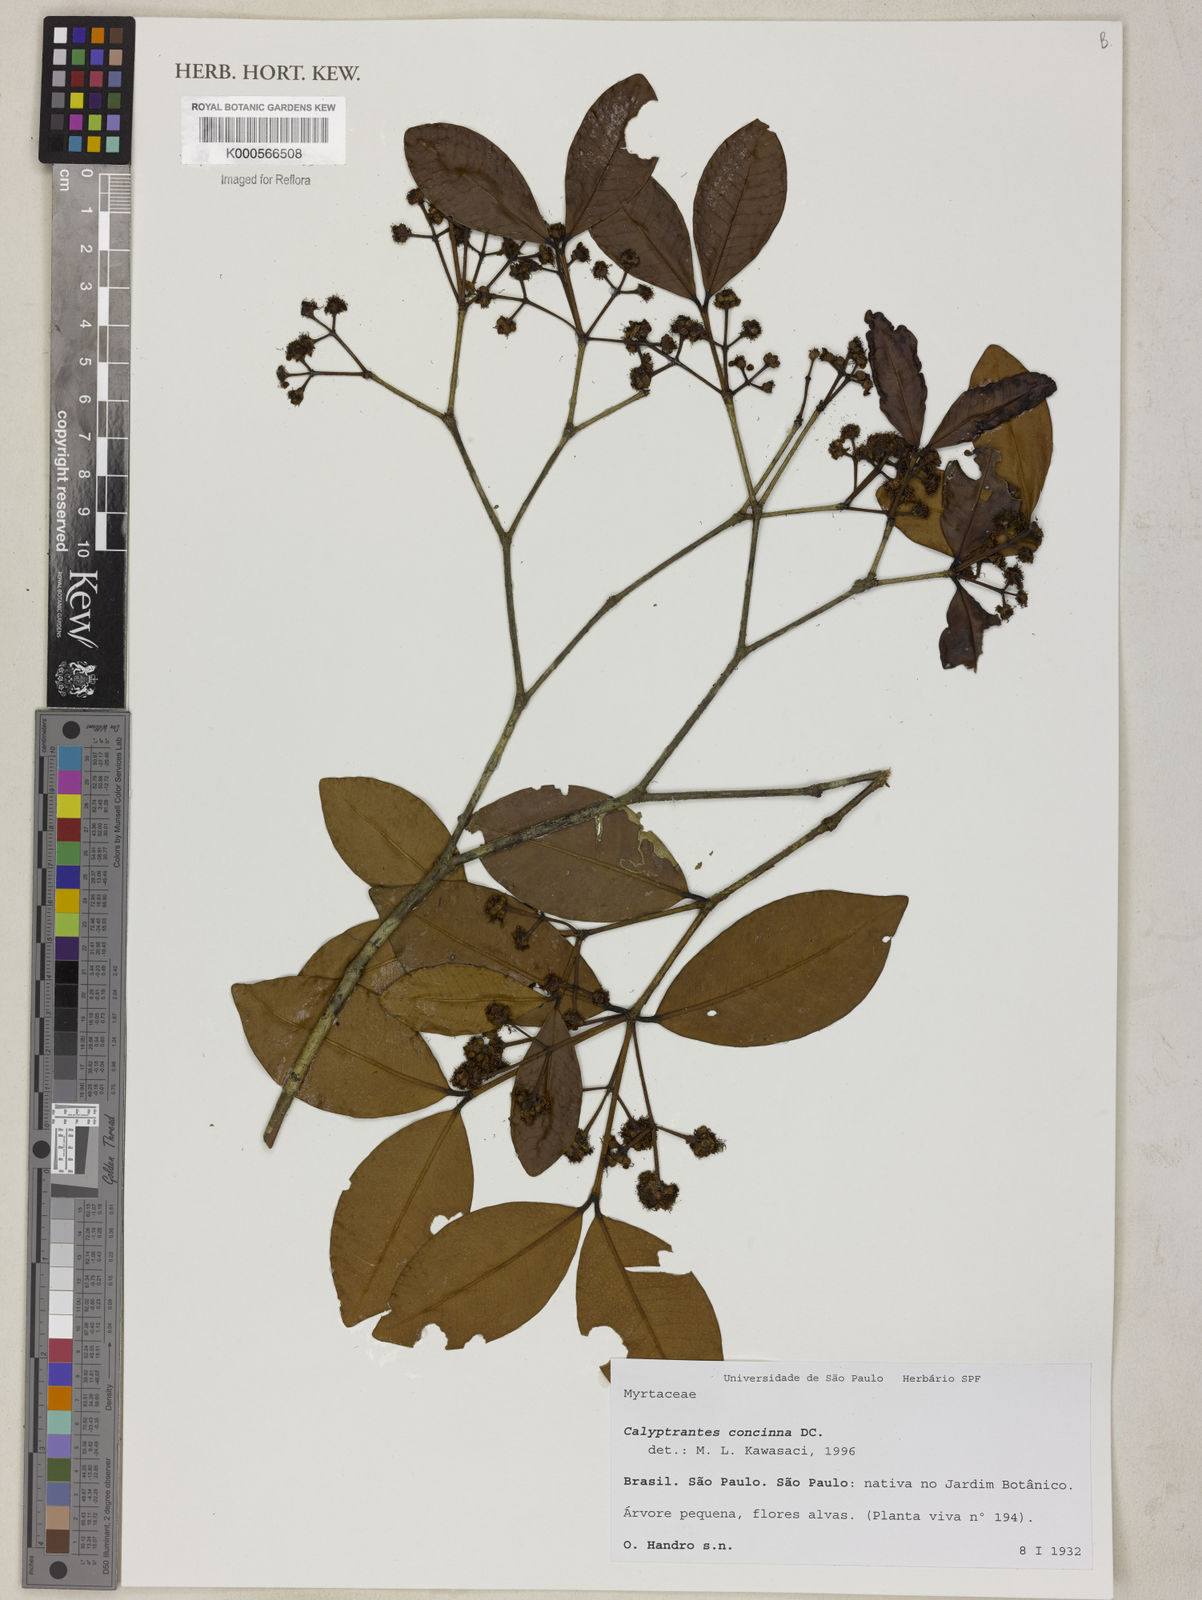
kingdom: Plantae
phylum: Tracheophyta
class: Magnoliopsida
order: Myrtales
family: Myrtaceae
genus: Myrcia
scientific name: Myrcia cruciflora
